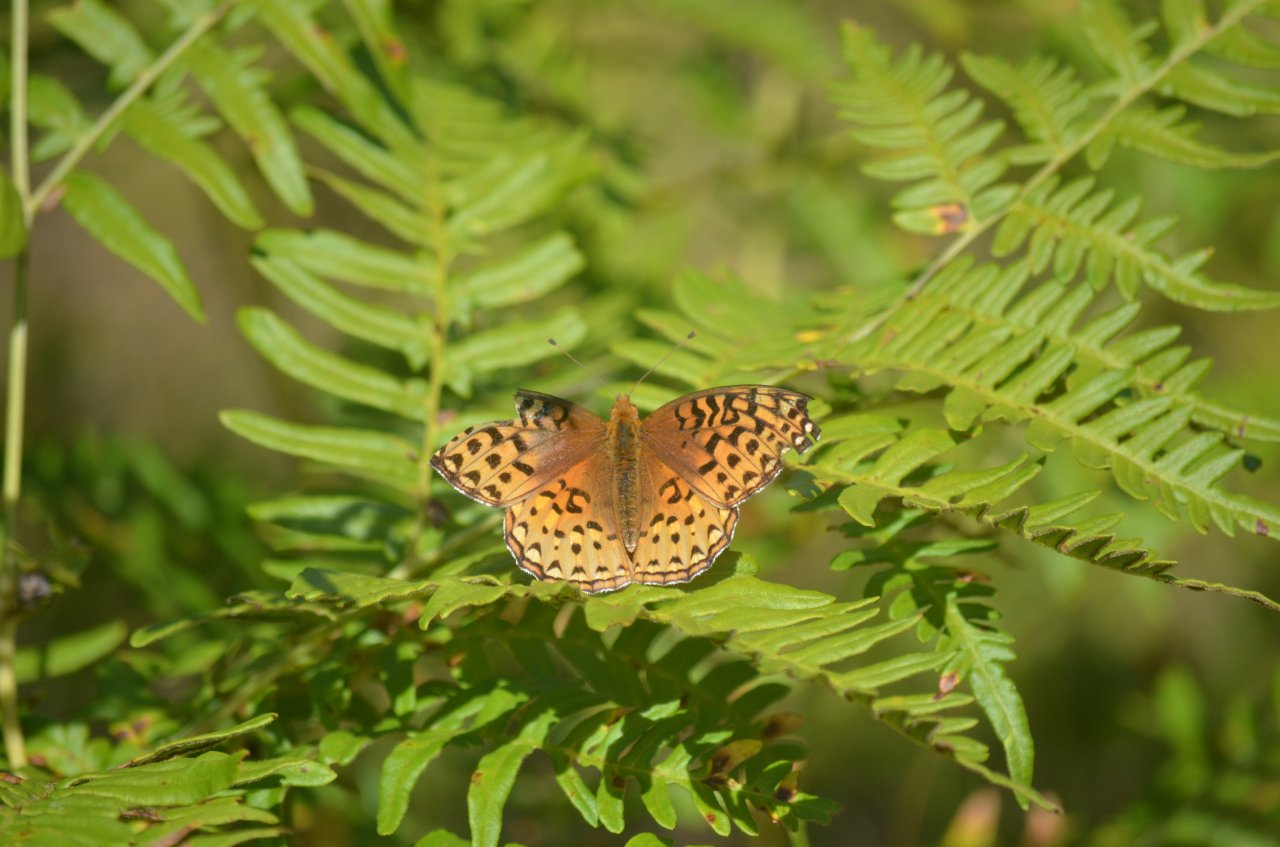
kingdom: Animalia
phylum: Arthropoda
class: Insecta
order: Lepidoptera
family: Nymphalidae
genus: Speyeria
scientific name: Speyeria aphrodite
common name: Aphrodite Fritillary
